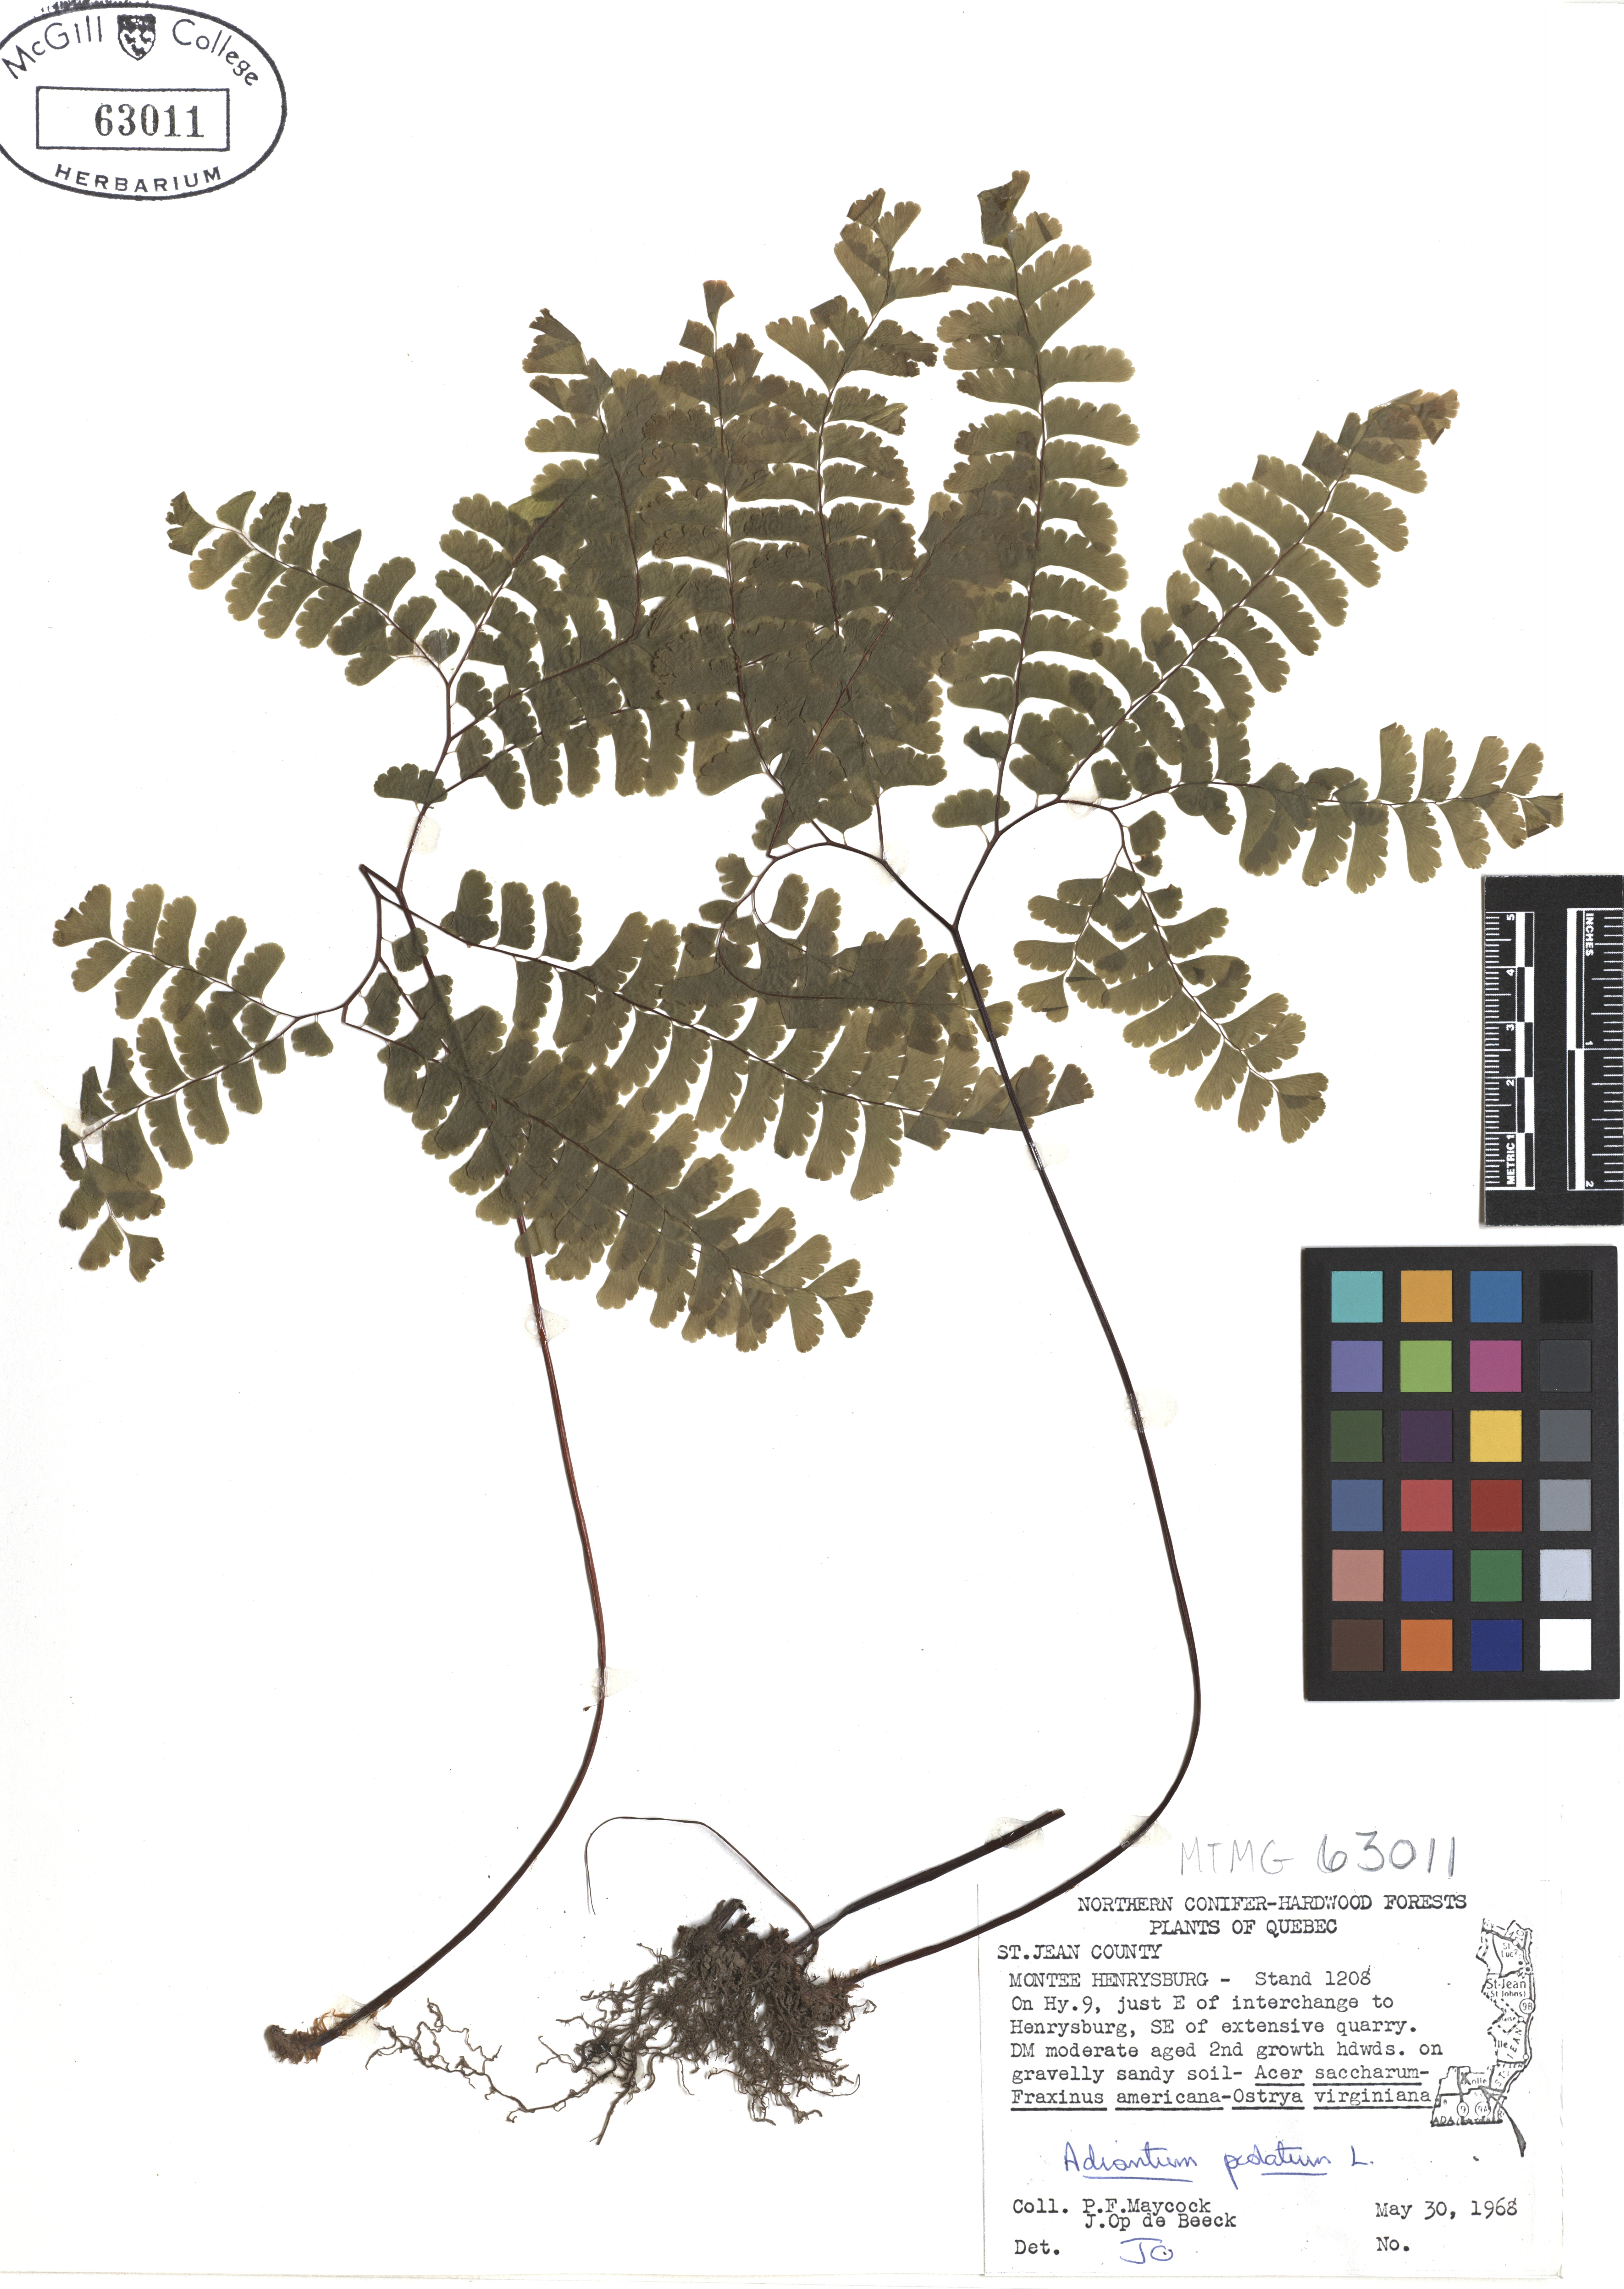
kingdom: Plantae
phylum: Tracheophyta
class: Polypodiopsida
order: Polypodiales
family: Pteridaceae
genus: Adiantum
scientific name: Adiantum pedatum
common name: Five-finger fern
